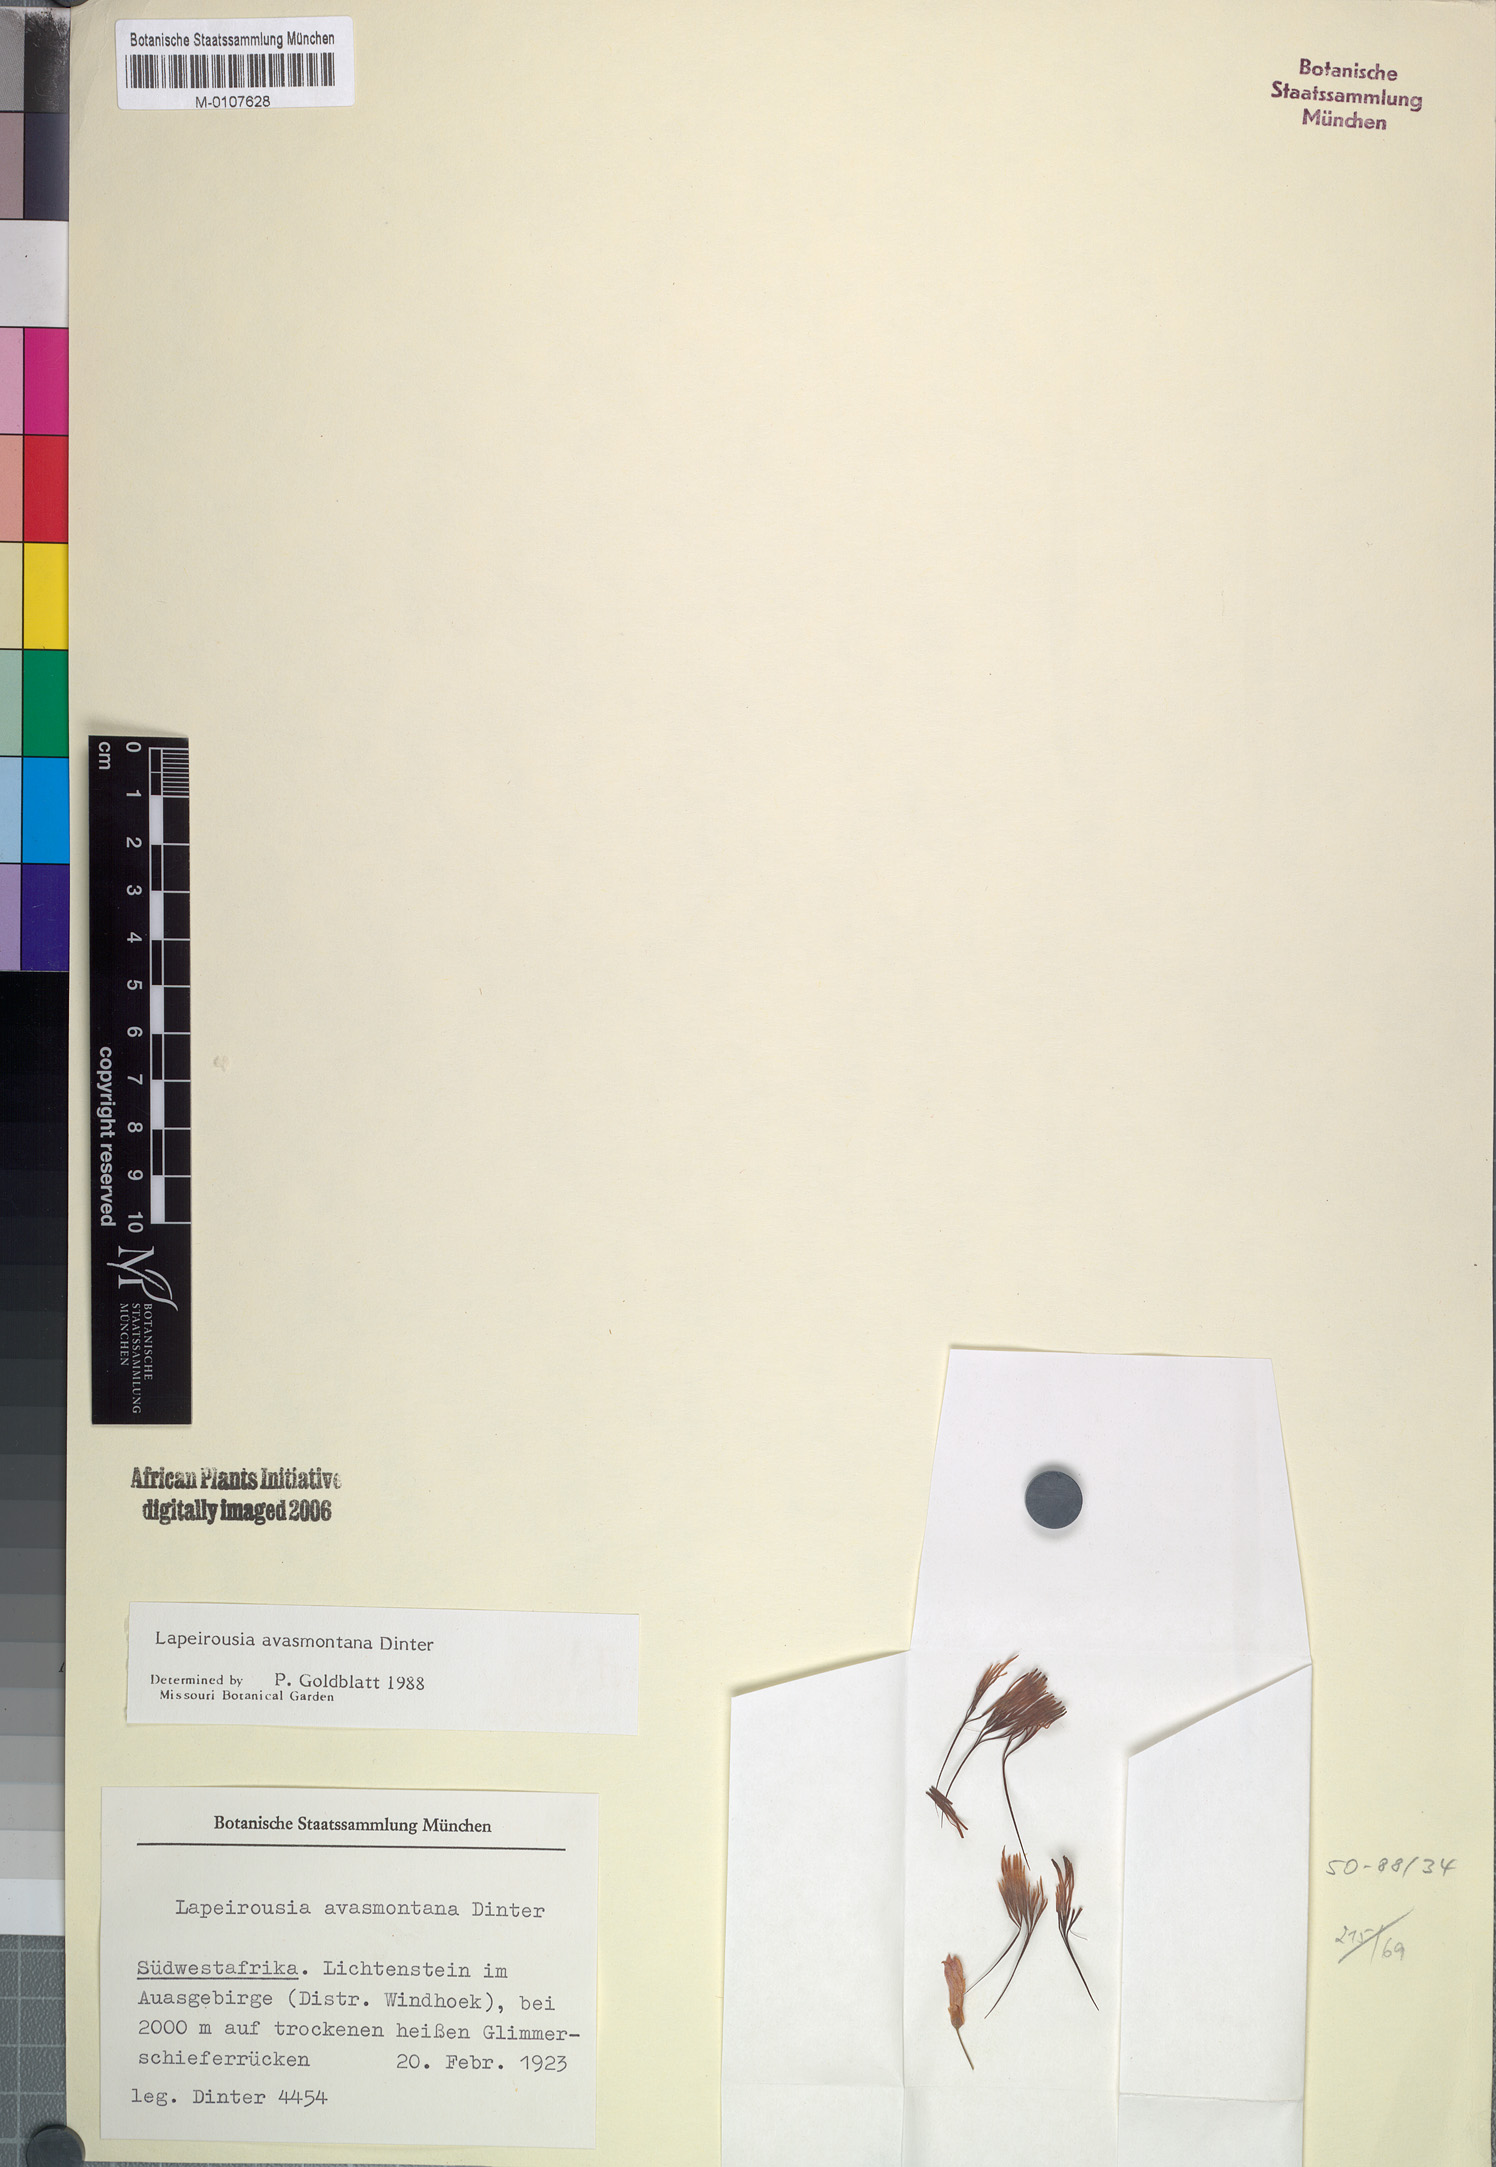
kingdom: Plantae
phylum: Tracheophyta
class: Liliopsida
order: Asparagales
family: Iridaceae
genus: Afrosolen
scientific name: Afrosolen avasmontanus
